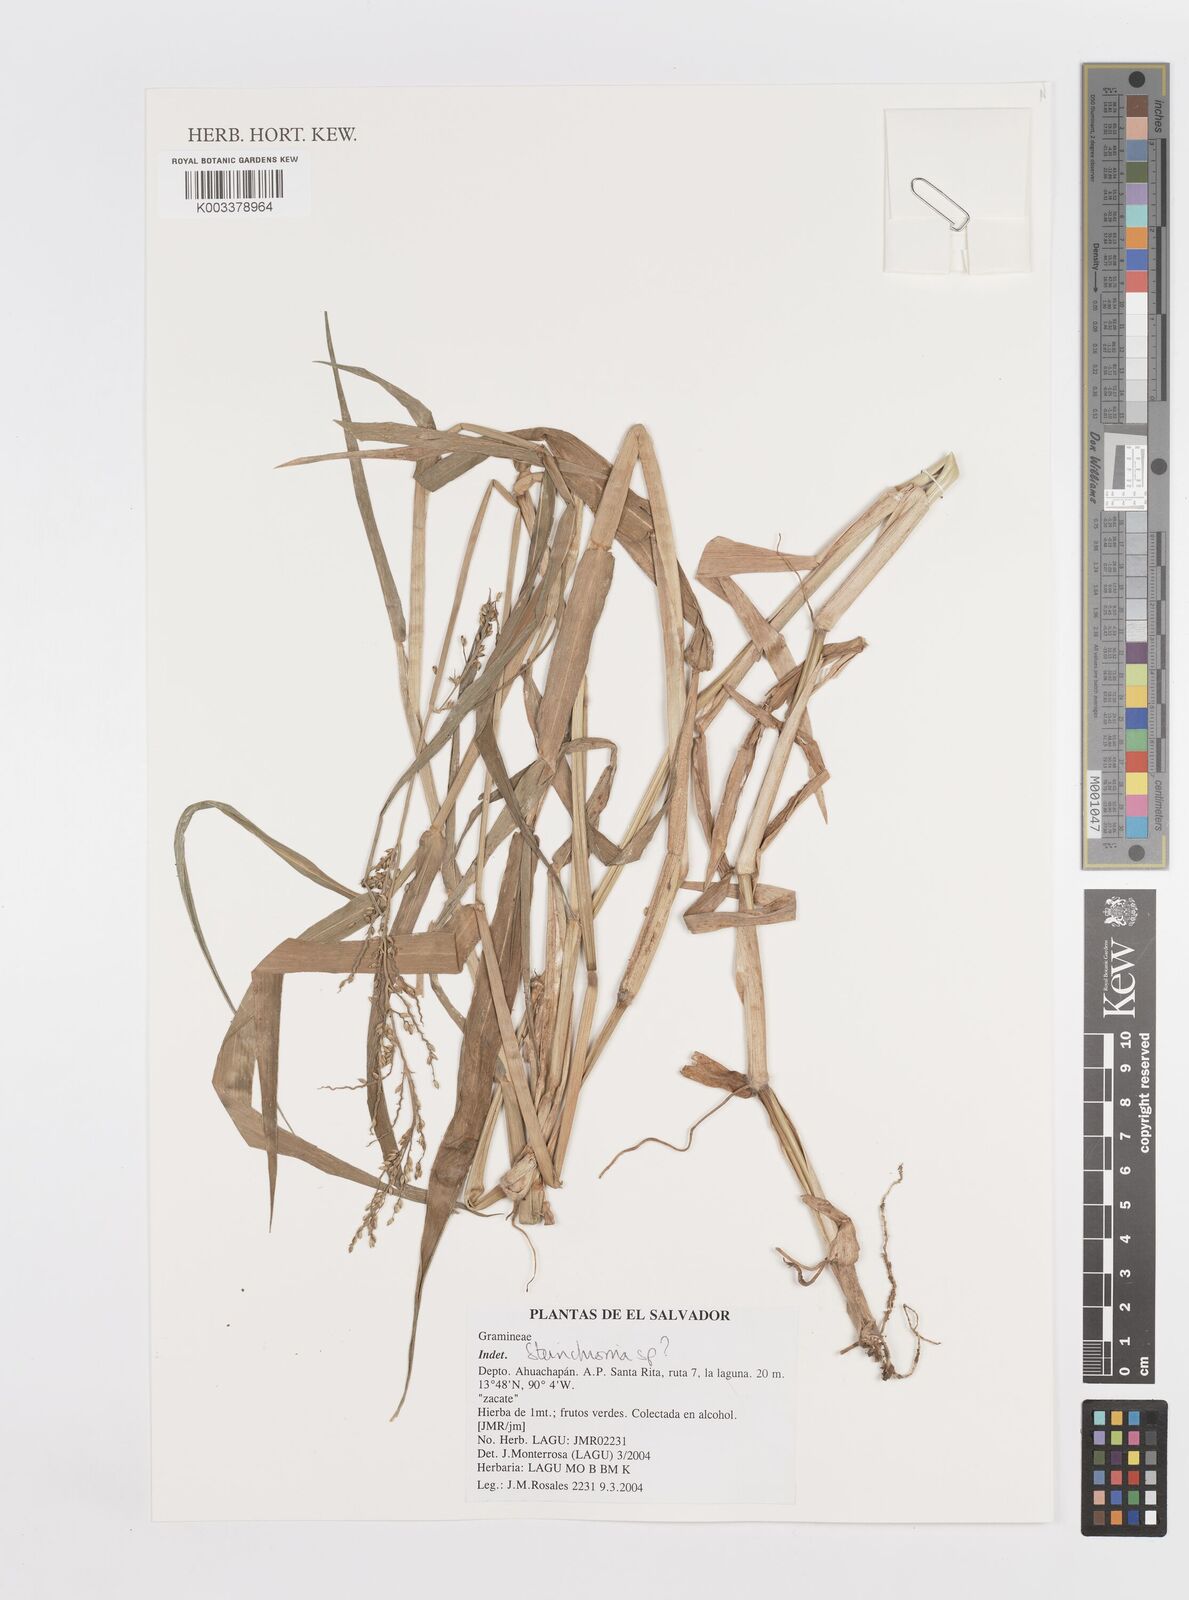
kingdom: Plantae
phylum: Tracheophyta
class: Liliopsida
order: Poales
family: Poaceae
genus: Steinchisma
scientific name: Steinchisma
